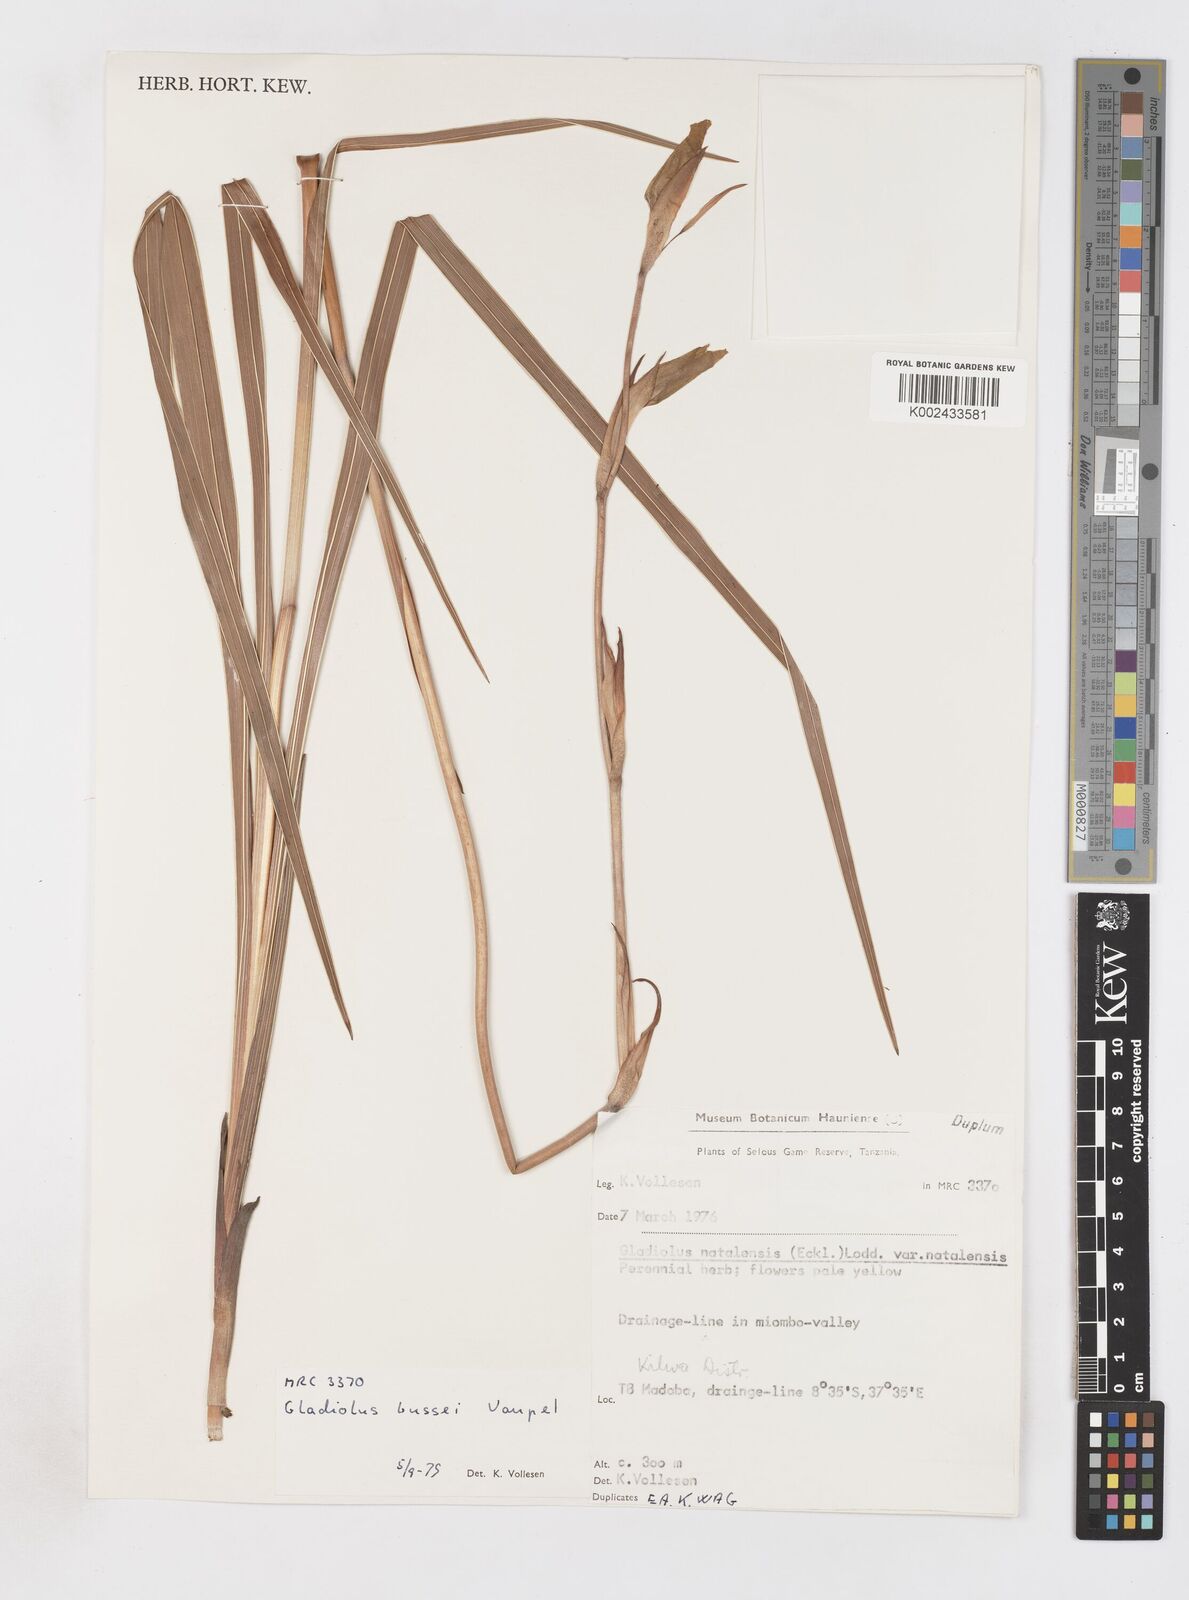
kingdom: Plantae
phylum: Tracheophyta
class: Liliopsida
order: Asparagales
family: Iridaceae
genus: Gladiolus
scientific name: Gladiolus oliganthus
